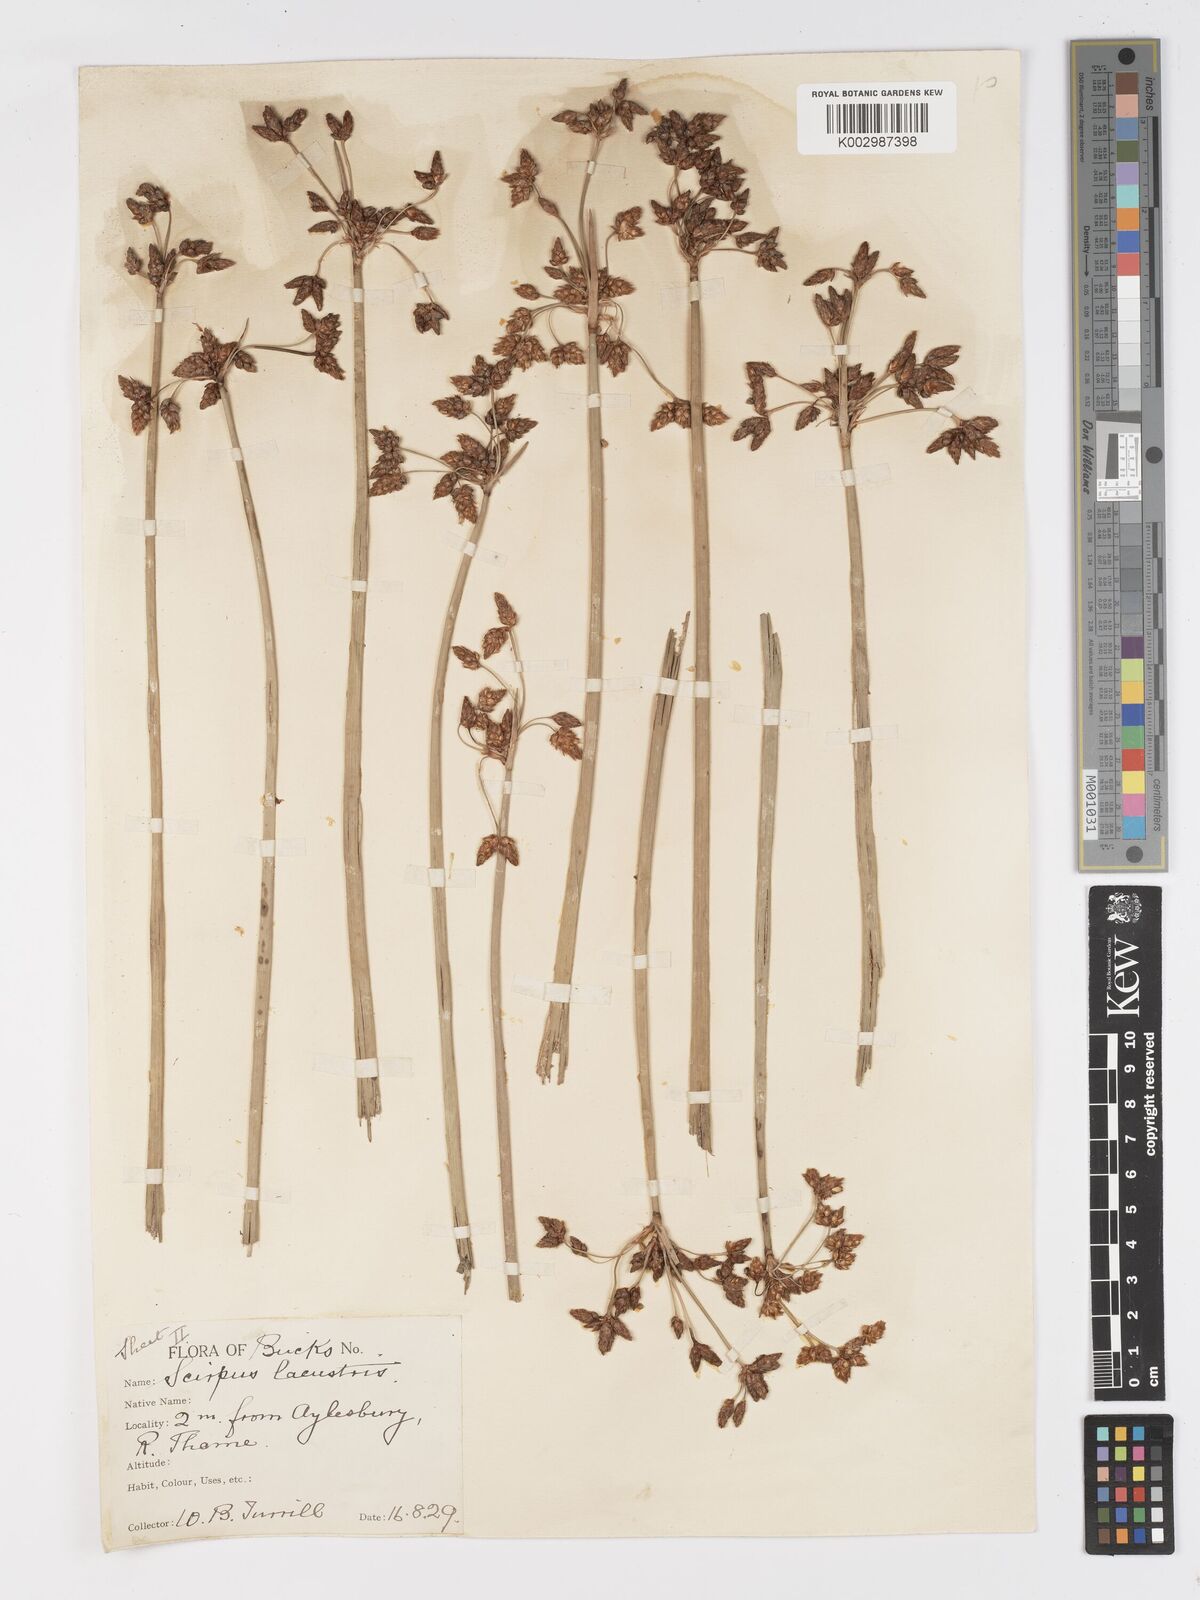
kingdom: Plantae
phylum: Tracheophyta
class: Liliopsida
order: Poales
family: Cyperaceae
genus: Schoenoplectus
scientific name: Schoenoplectus lacustris
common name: Common club-rush
